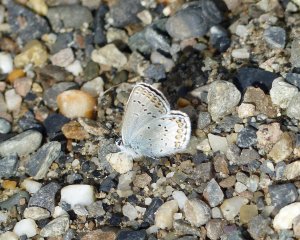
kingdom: Animalia
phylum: Arthropoda
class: Insecta
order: Lepidoptera
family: Lycaenidae
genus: Lycaeides
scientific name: Lycaeides idas
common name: Northern Blue
